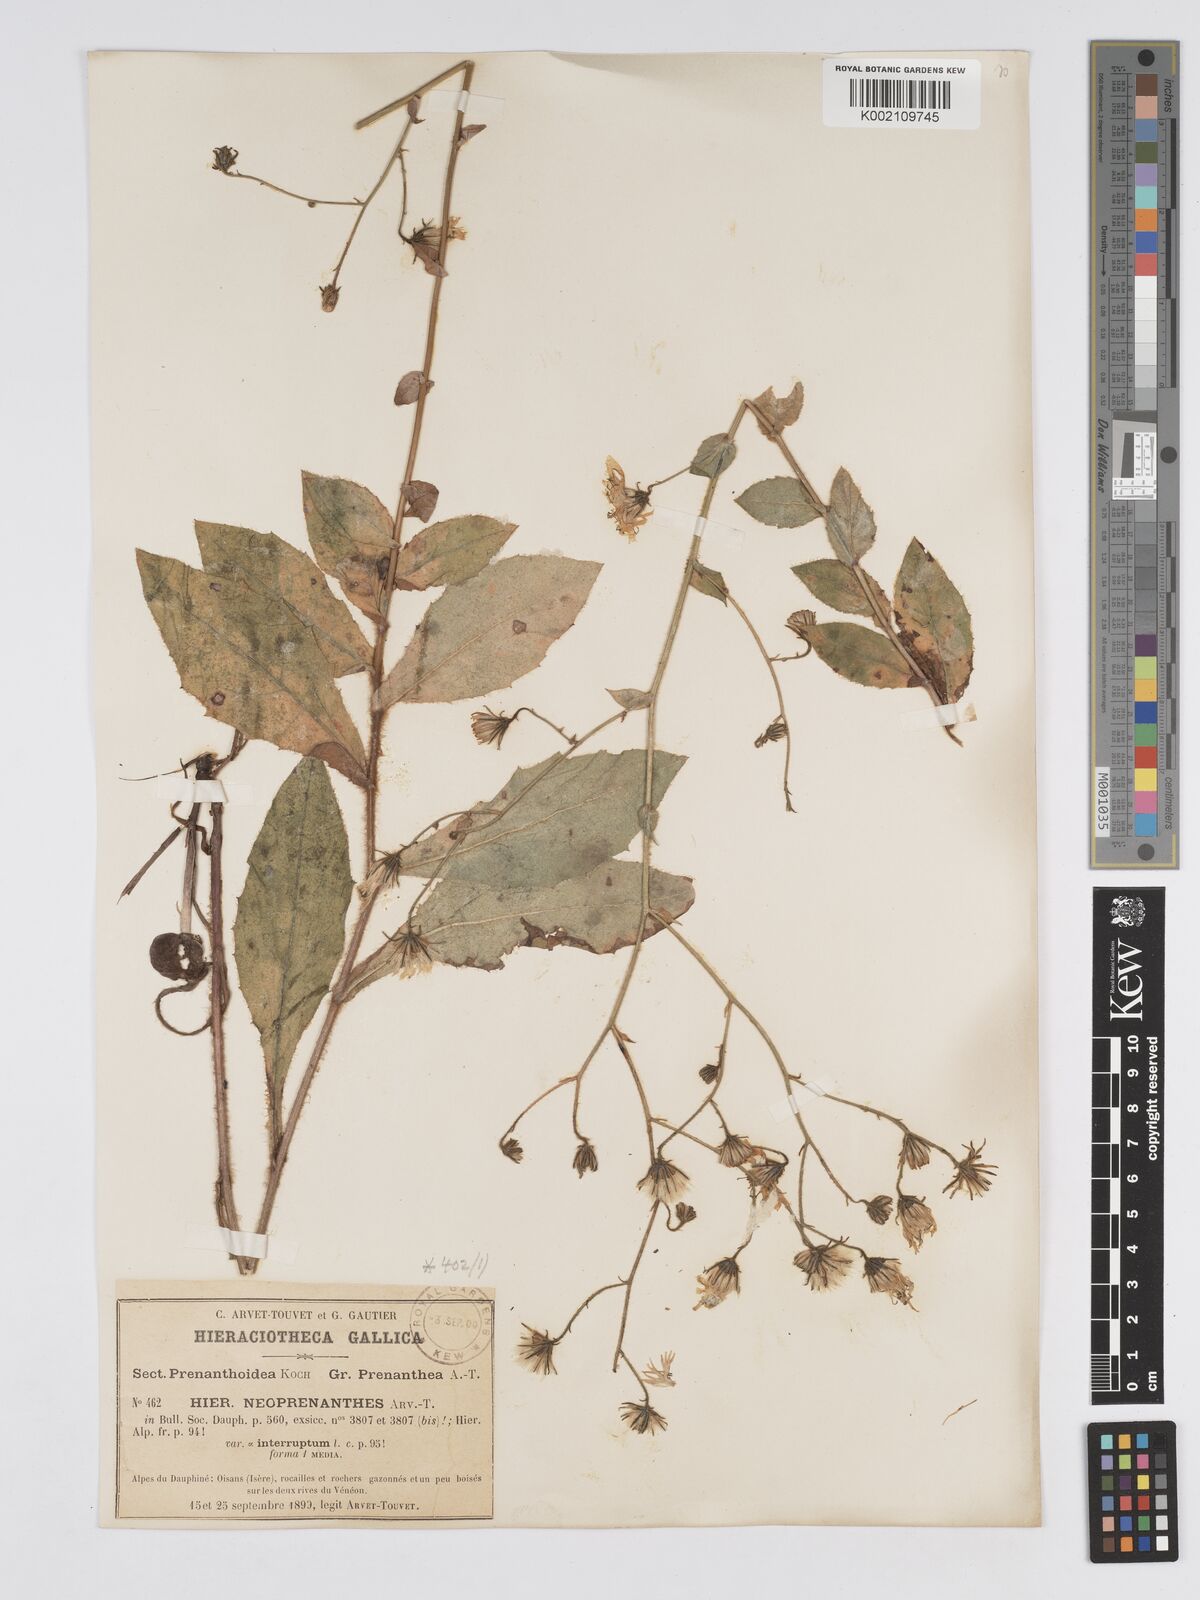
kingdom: Plantae
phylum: Tracheophyta
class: Magnoliopsida
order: Asterales
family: Asteraceae
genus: Hieracium
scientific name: Hieracium symphytaceum
